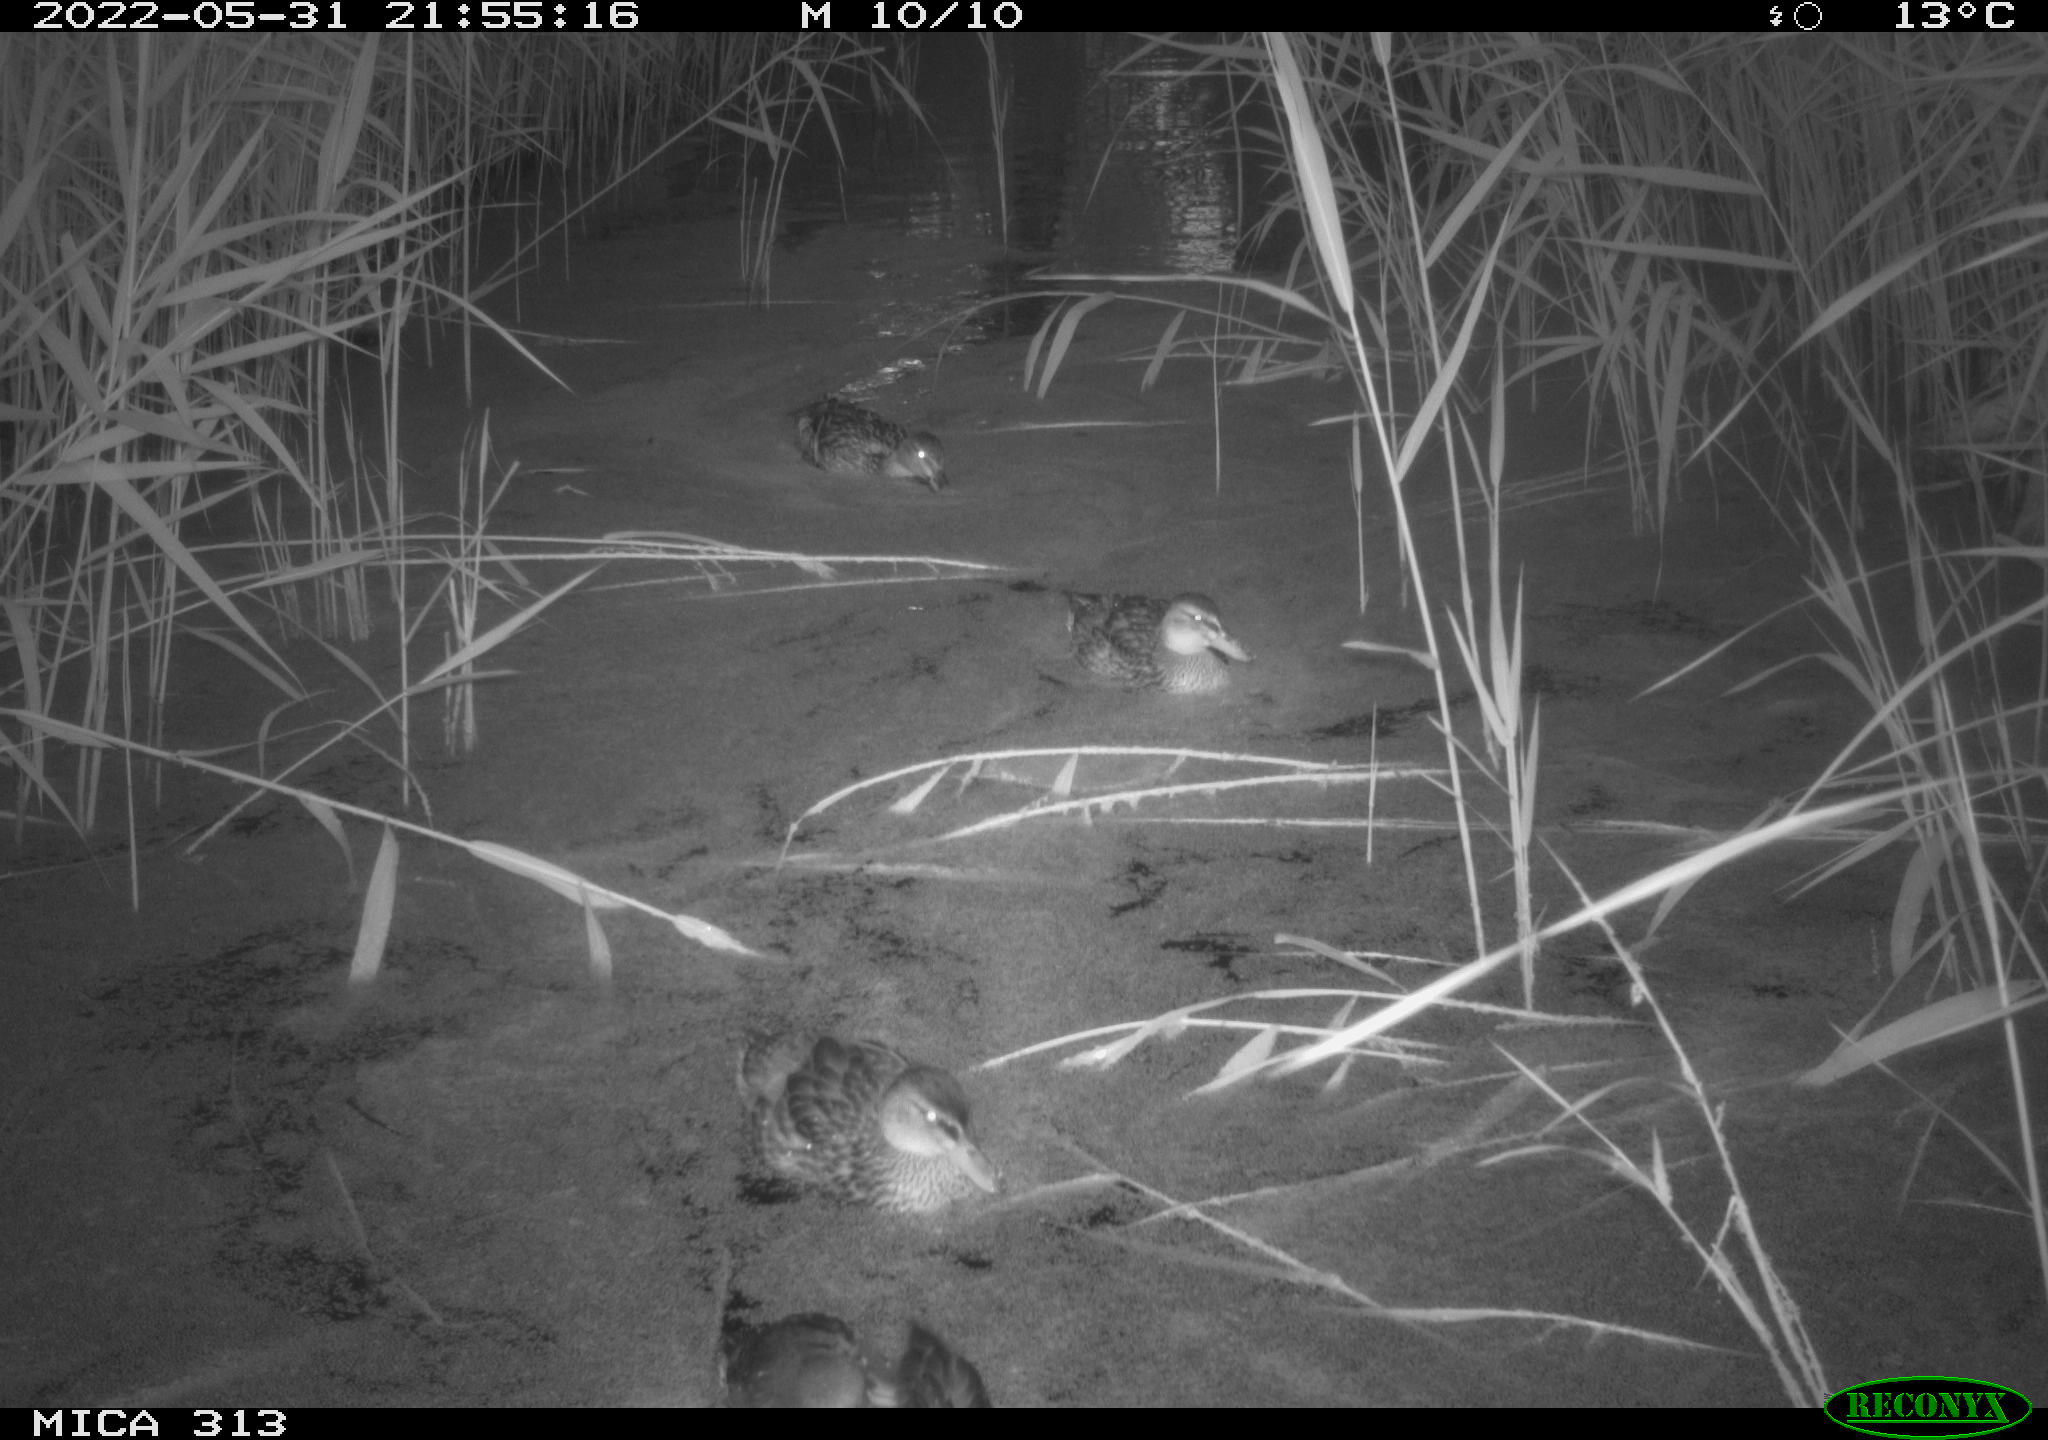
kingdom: Animalia
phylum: Chordata
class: Aves
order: Anseriformes
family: Anatidae
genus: Anas
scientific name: Anas platyrhynchos
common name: Mallard
